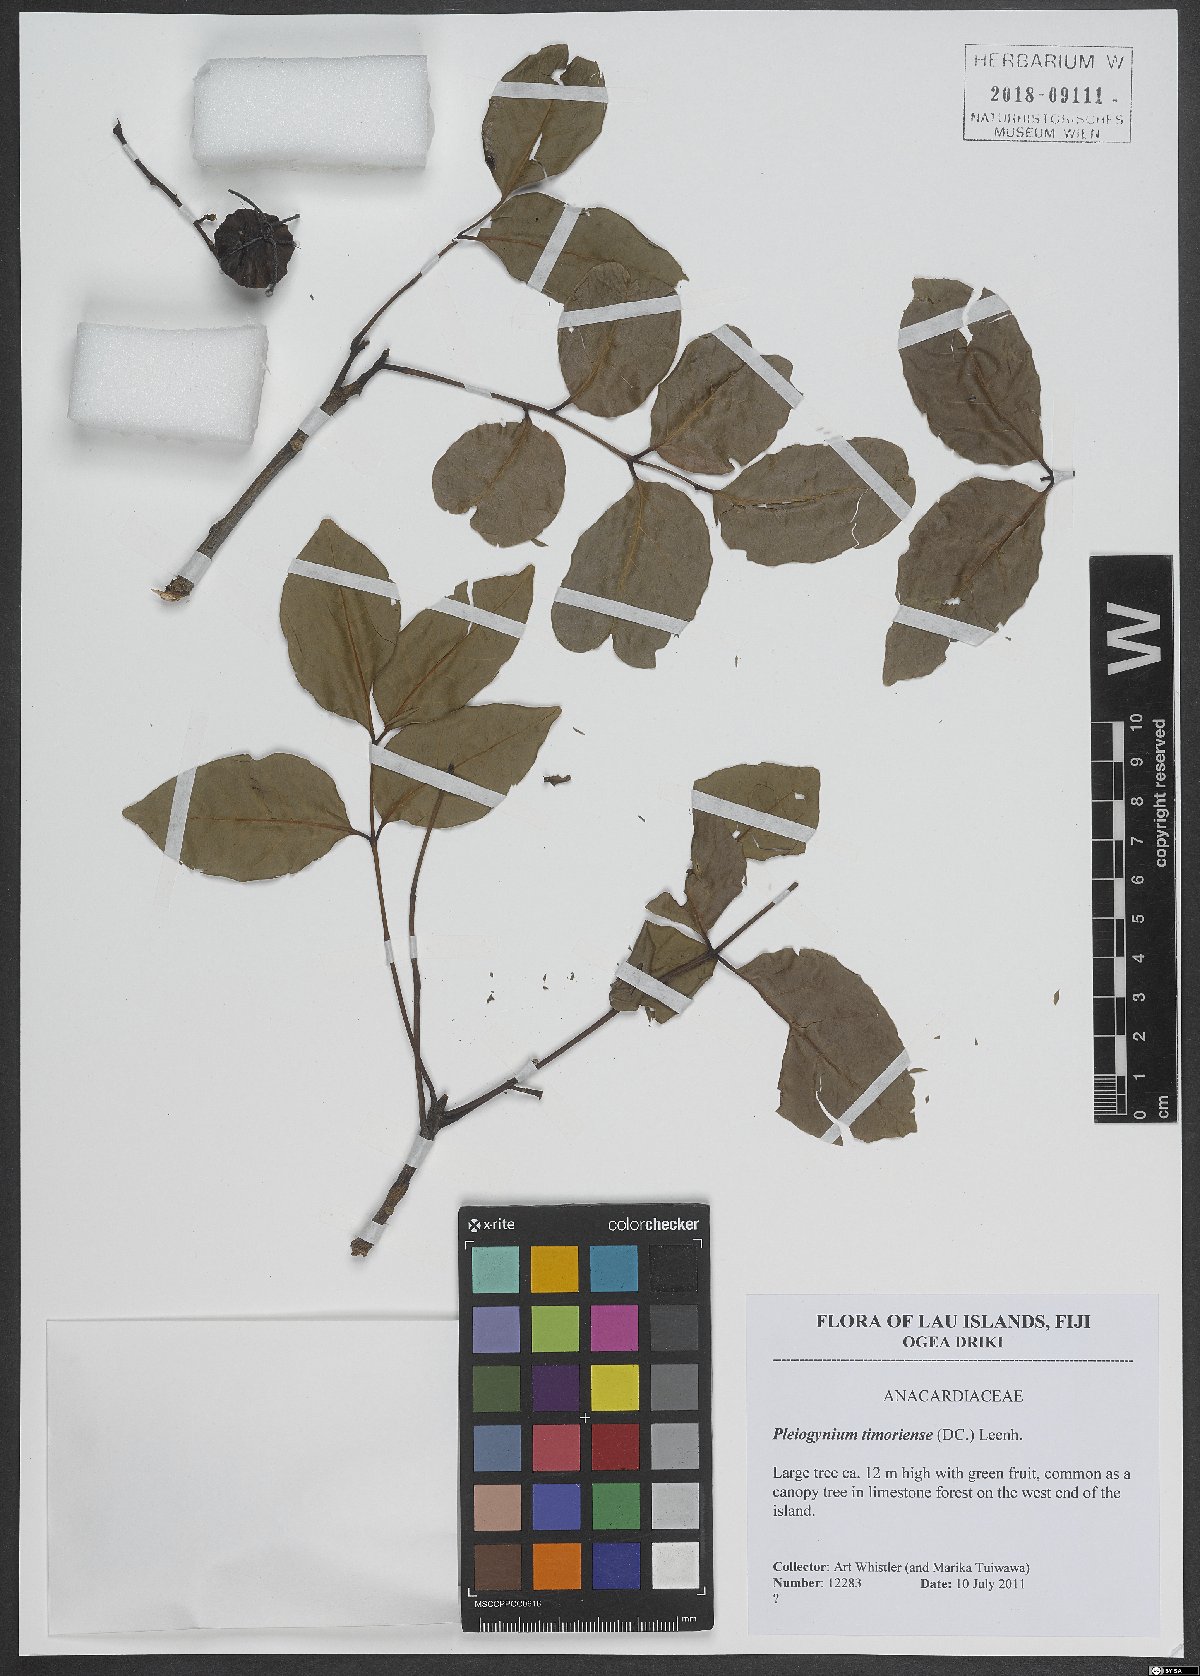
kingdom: Plantae
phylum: Tracheophyta
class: Magnoliopsida
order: Sapindales
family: Anacardiaceae
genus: Pleiogynium
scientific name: Pleiogynium timoriense
